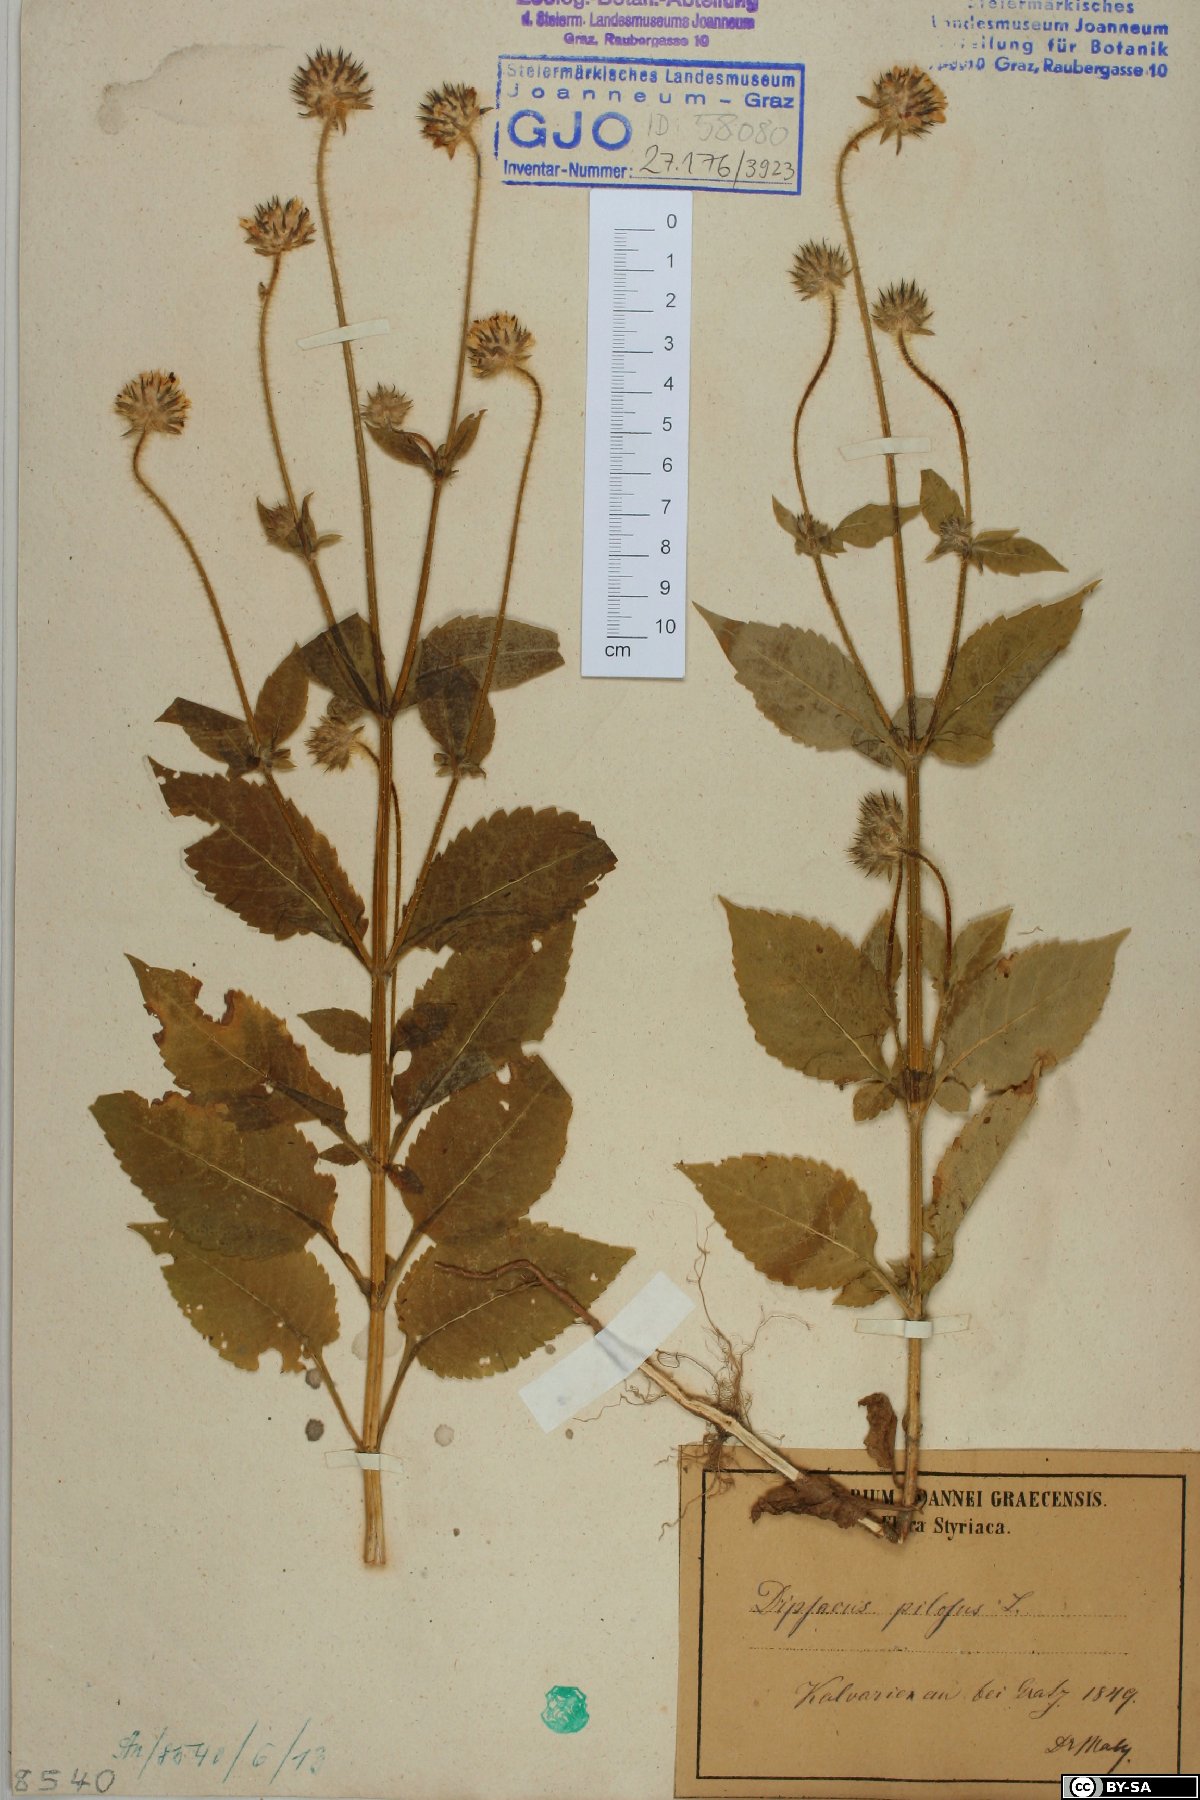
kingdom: Plantae
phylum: Tracheophyta
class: Magnoliopsida
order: Dipsacales
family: Caprifoliaceae
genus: Dipsacus
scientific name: Dipsacus pilosus
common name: Small teasel
